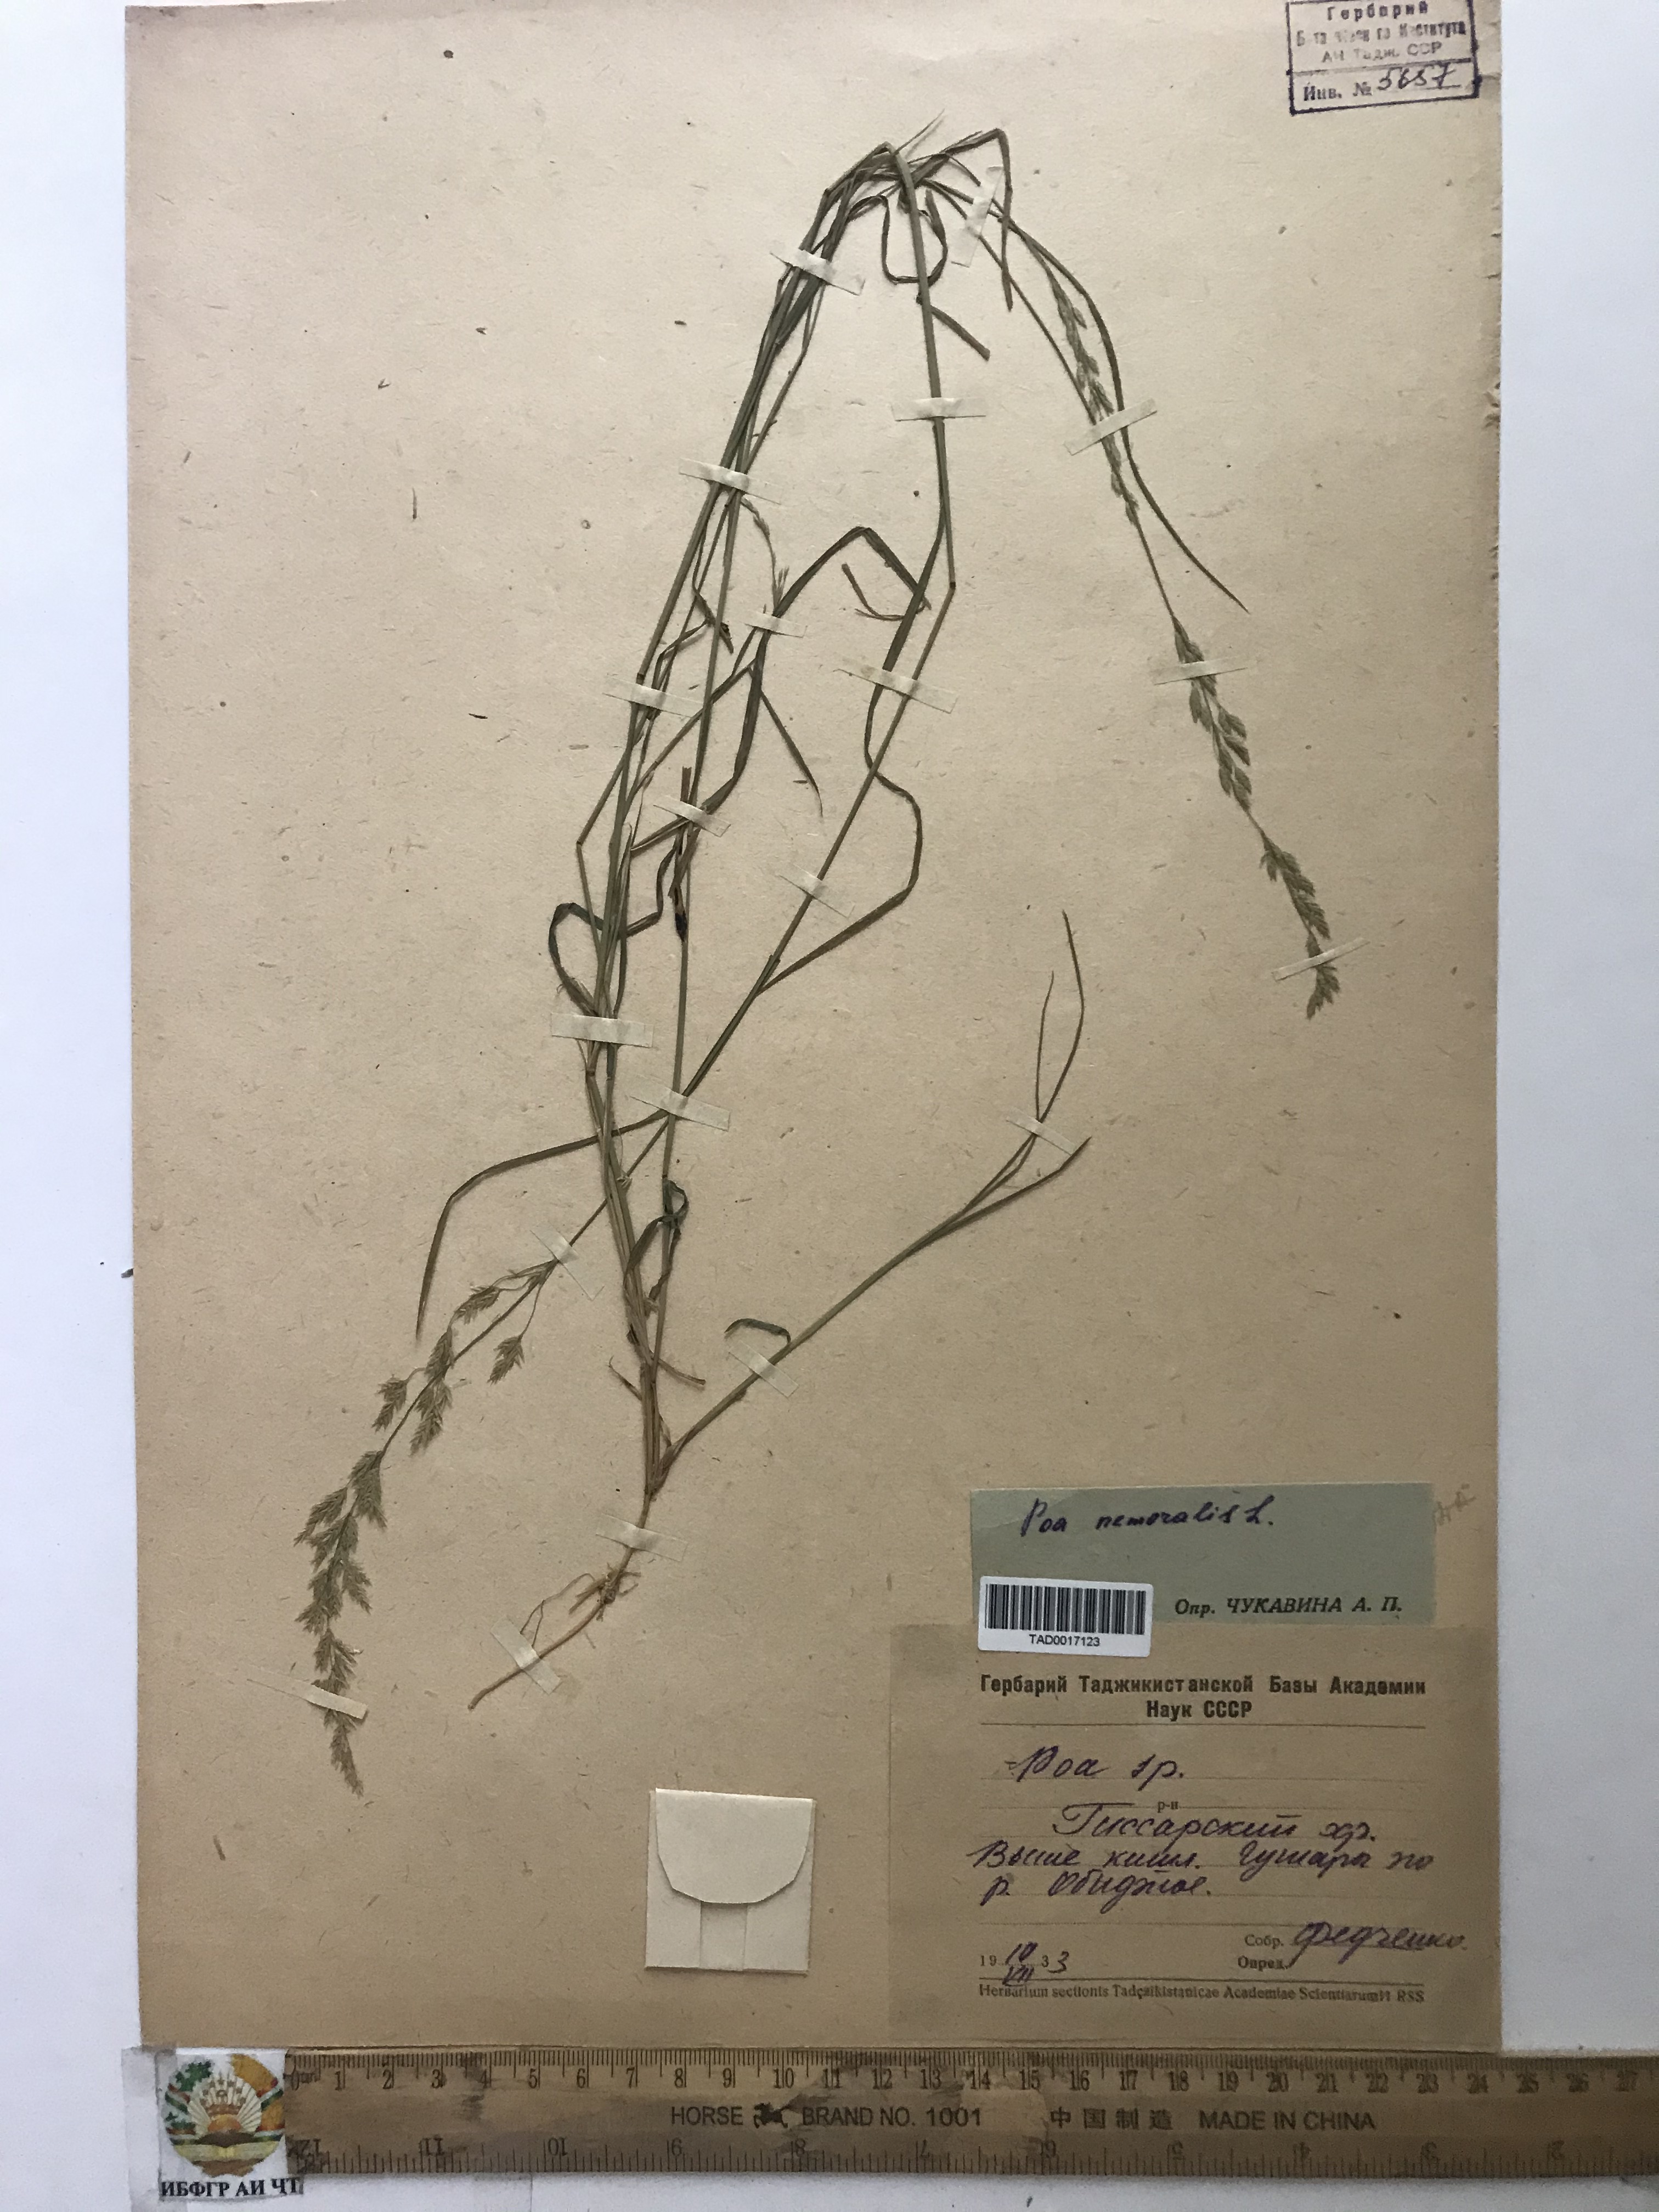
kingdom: Plantae
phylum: Tracheophyta
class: Liliopsida
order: Poales
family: Poaceae
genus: Poa
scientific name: Poa nemoralis
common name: Wood bluegrass
